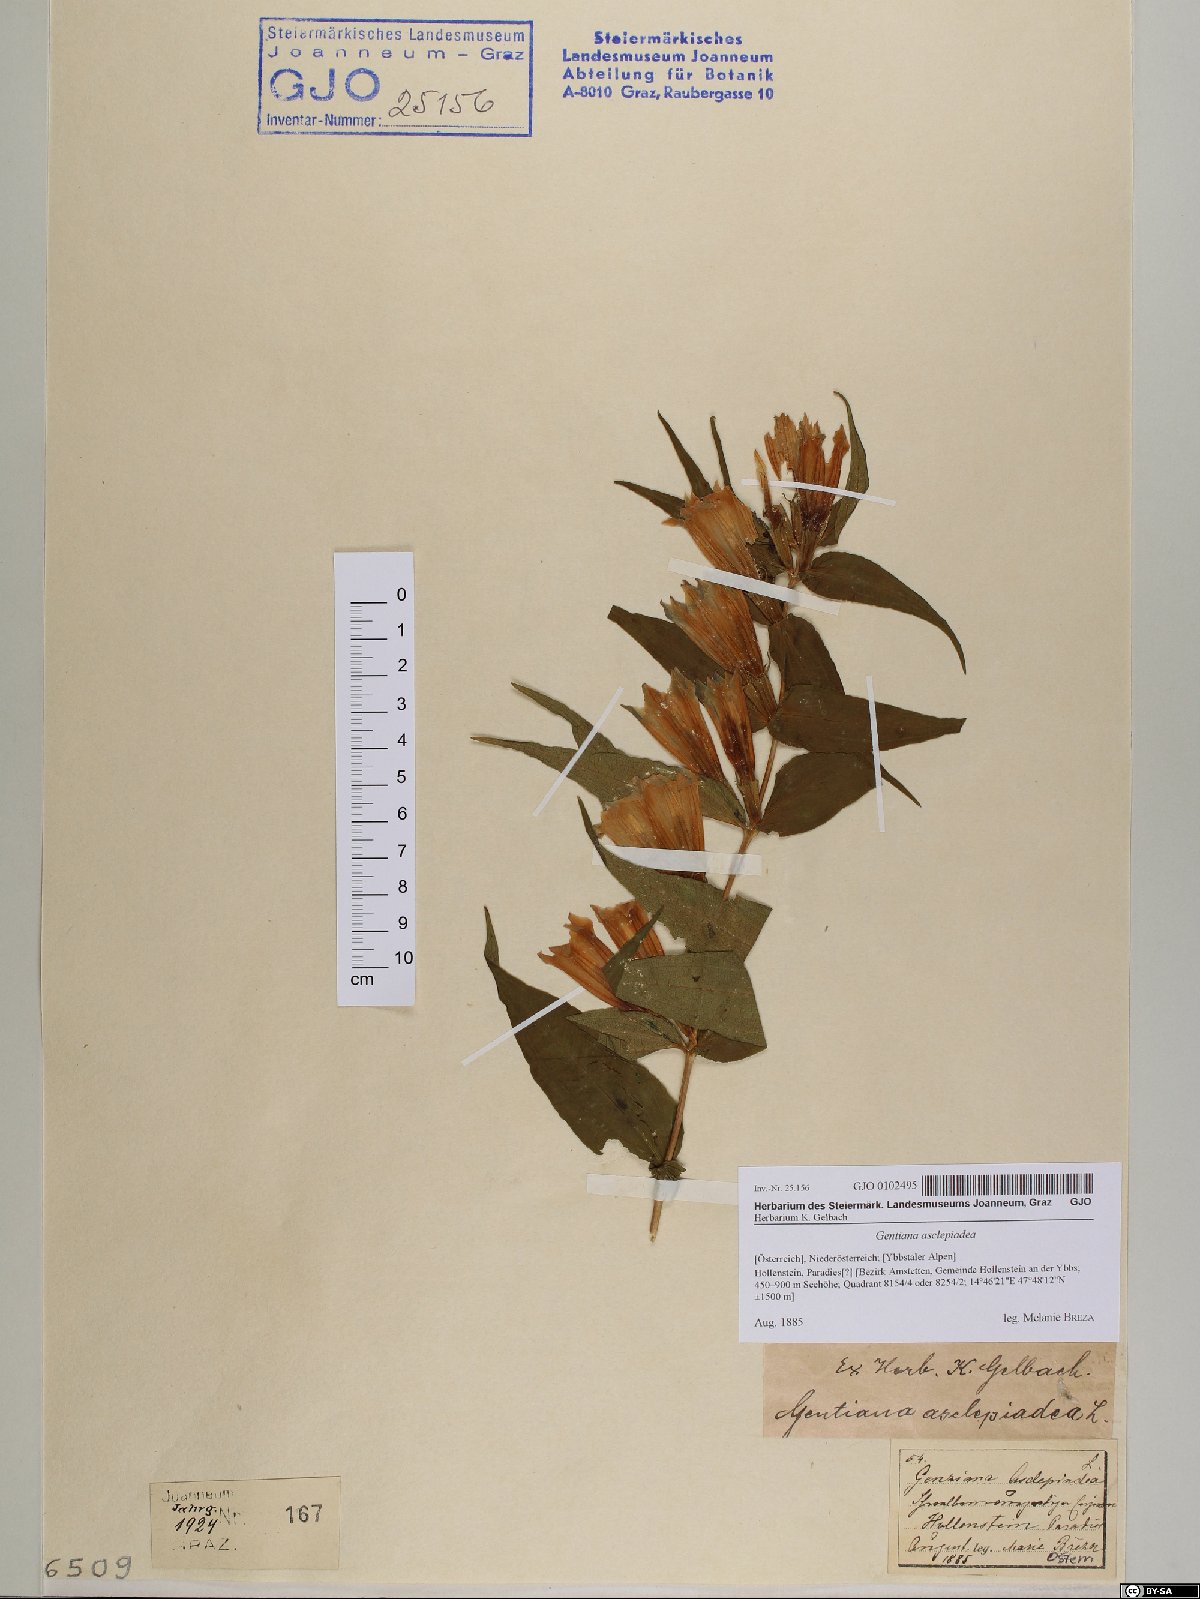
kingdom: Plantae
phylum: Tracheophyta
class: Magnoliopsida
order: Gentianales
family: Gentianaceae
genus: Gentiana
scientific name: Gentiana asclepiadea
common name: Willow gentian
